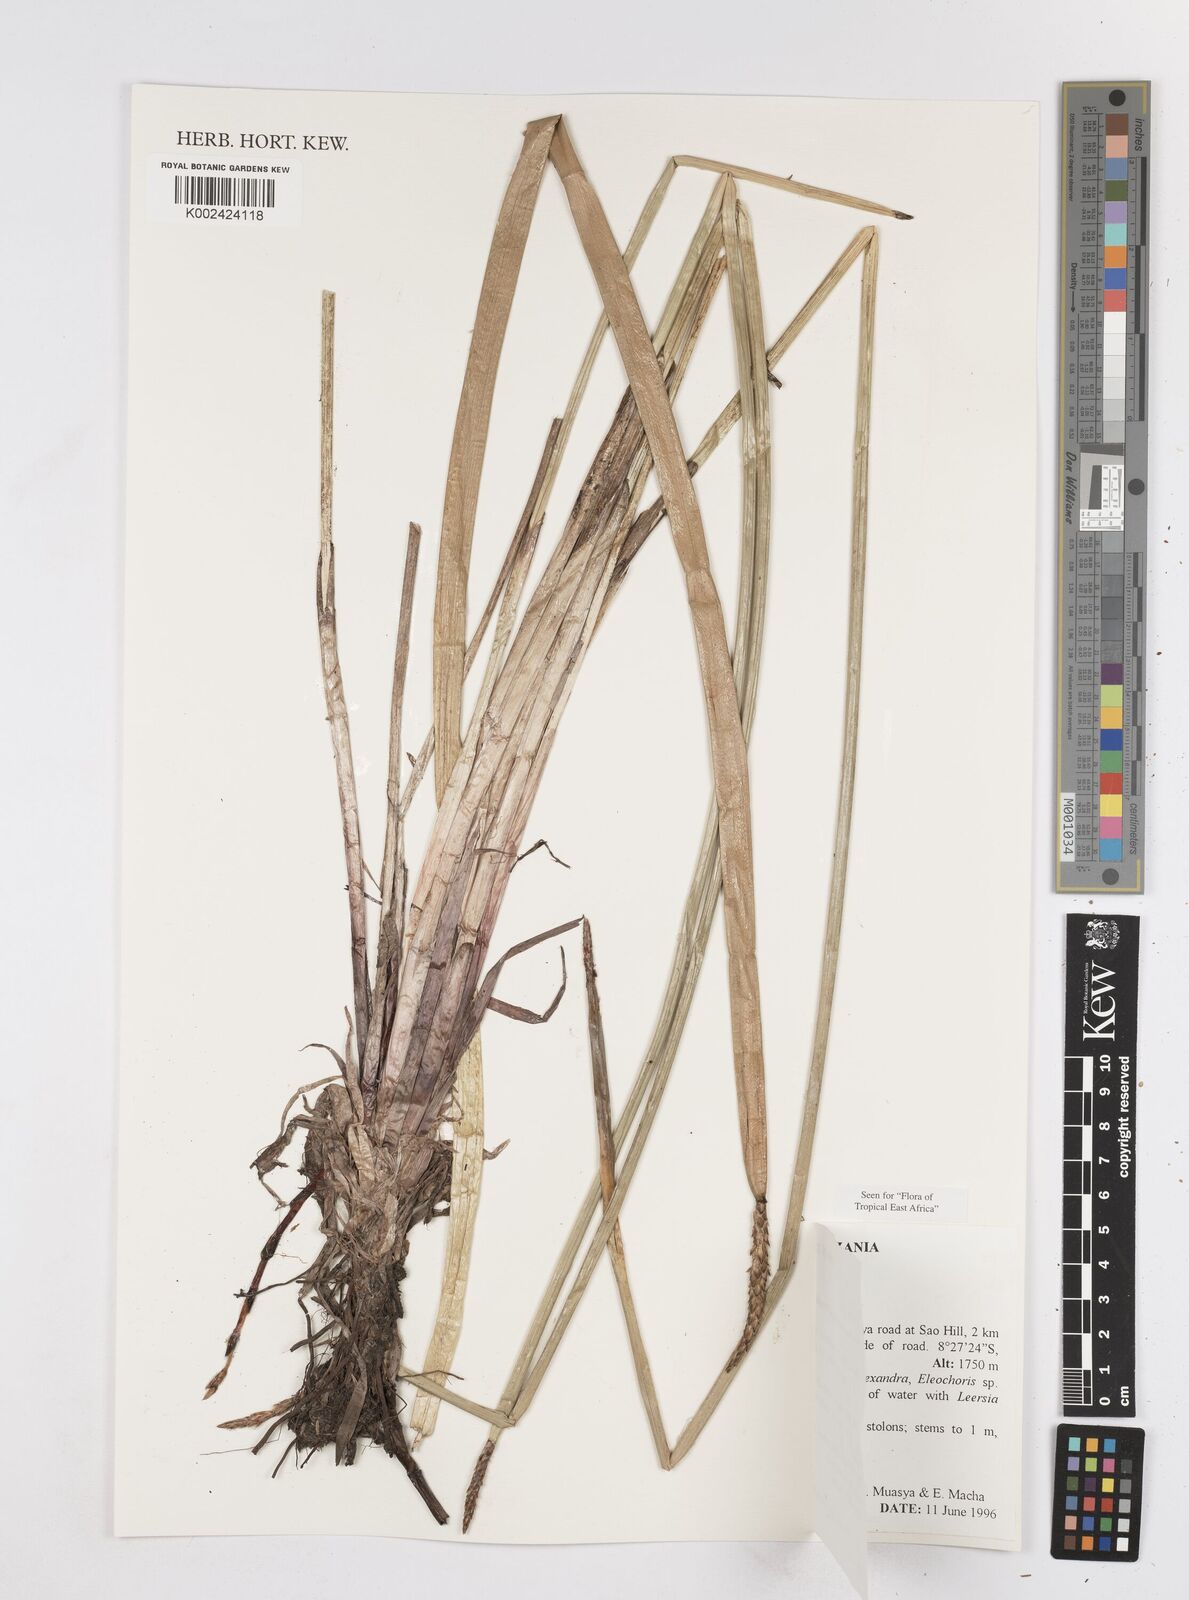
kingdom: Plantae
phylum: Tracheophyta
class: Liliopsida
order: Poales
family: Cyperaceae
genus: Eleocharis
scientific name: Eleocharis dulcis
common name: Chinese water chestnut
